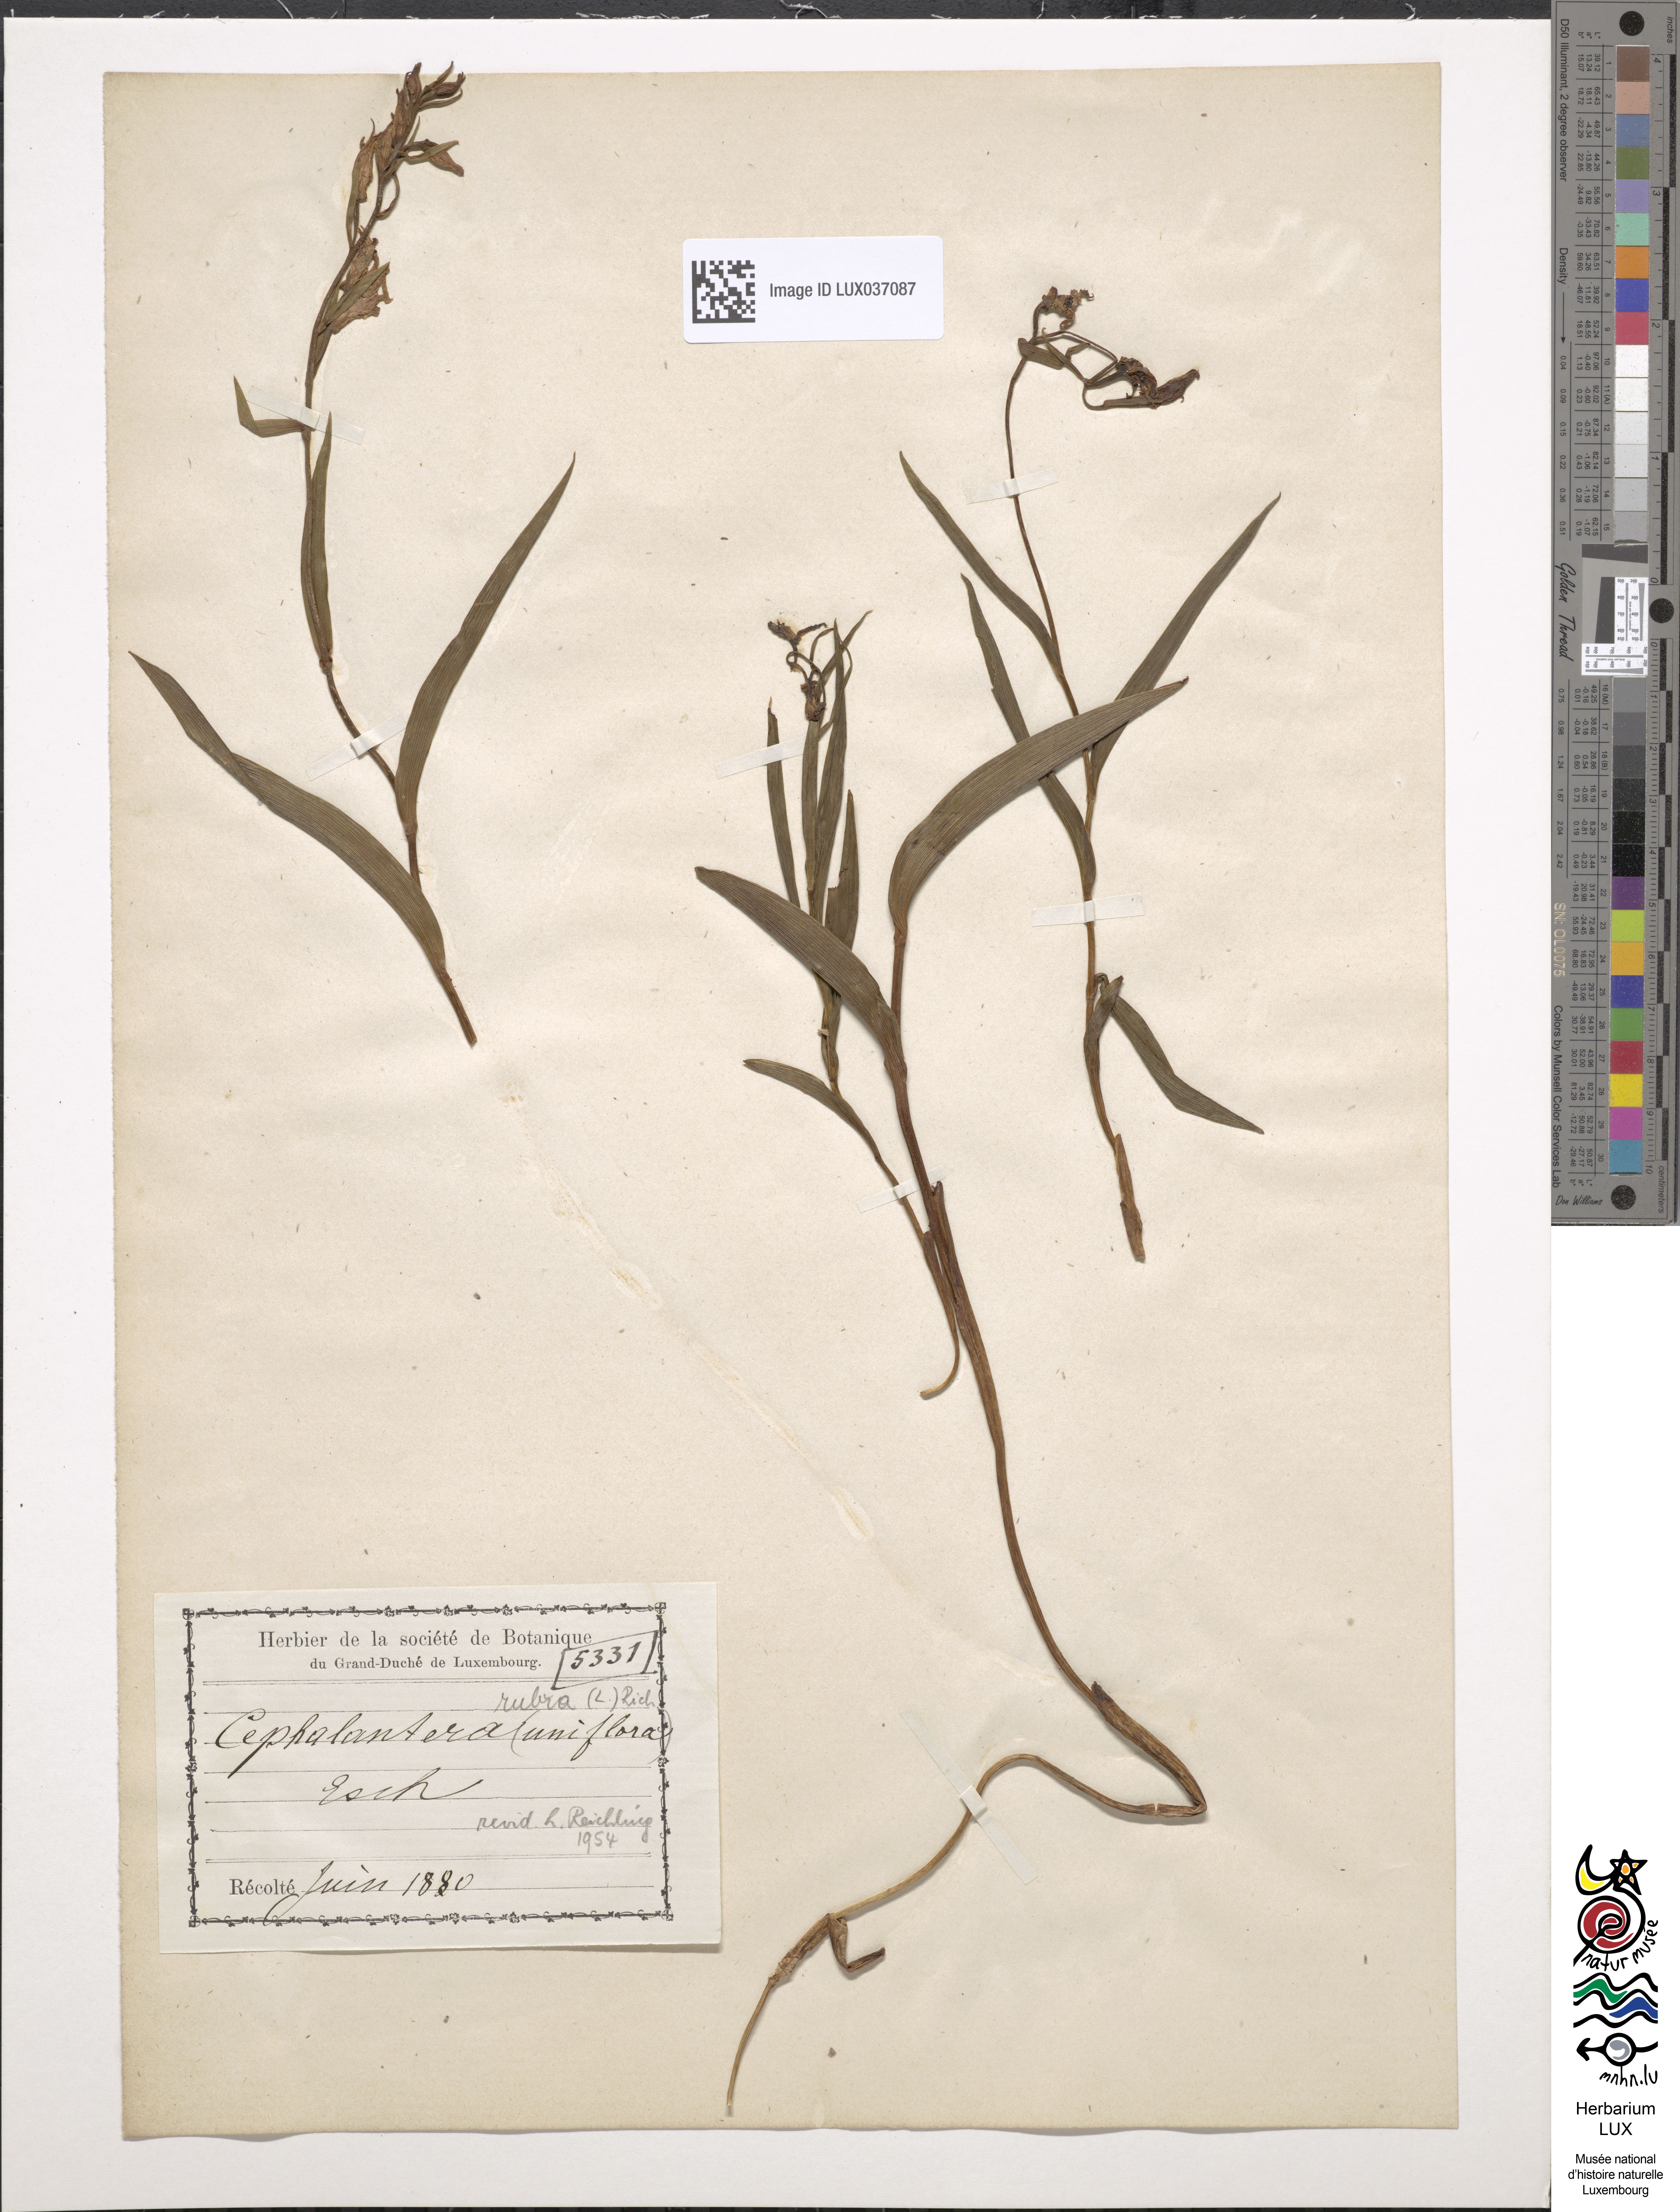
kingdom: Plantae
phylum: Tracheophyta
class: Liliopsida
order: Asparagales
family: Orchidaceae
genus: Cephalanthera
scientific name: Cephalanthera rubra
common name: Red helleborine
